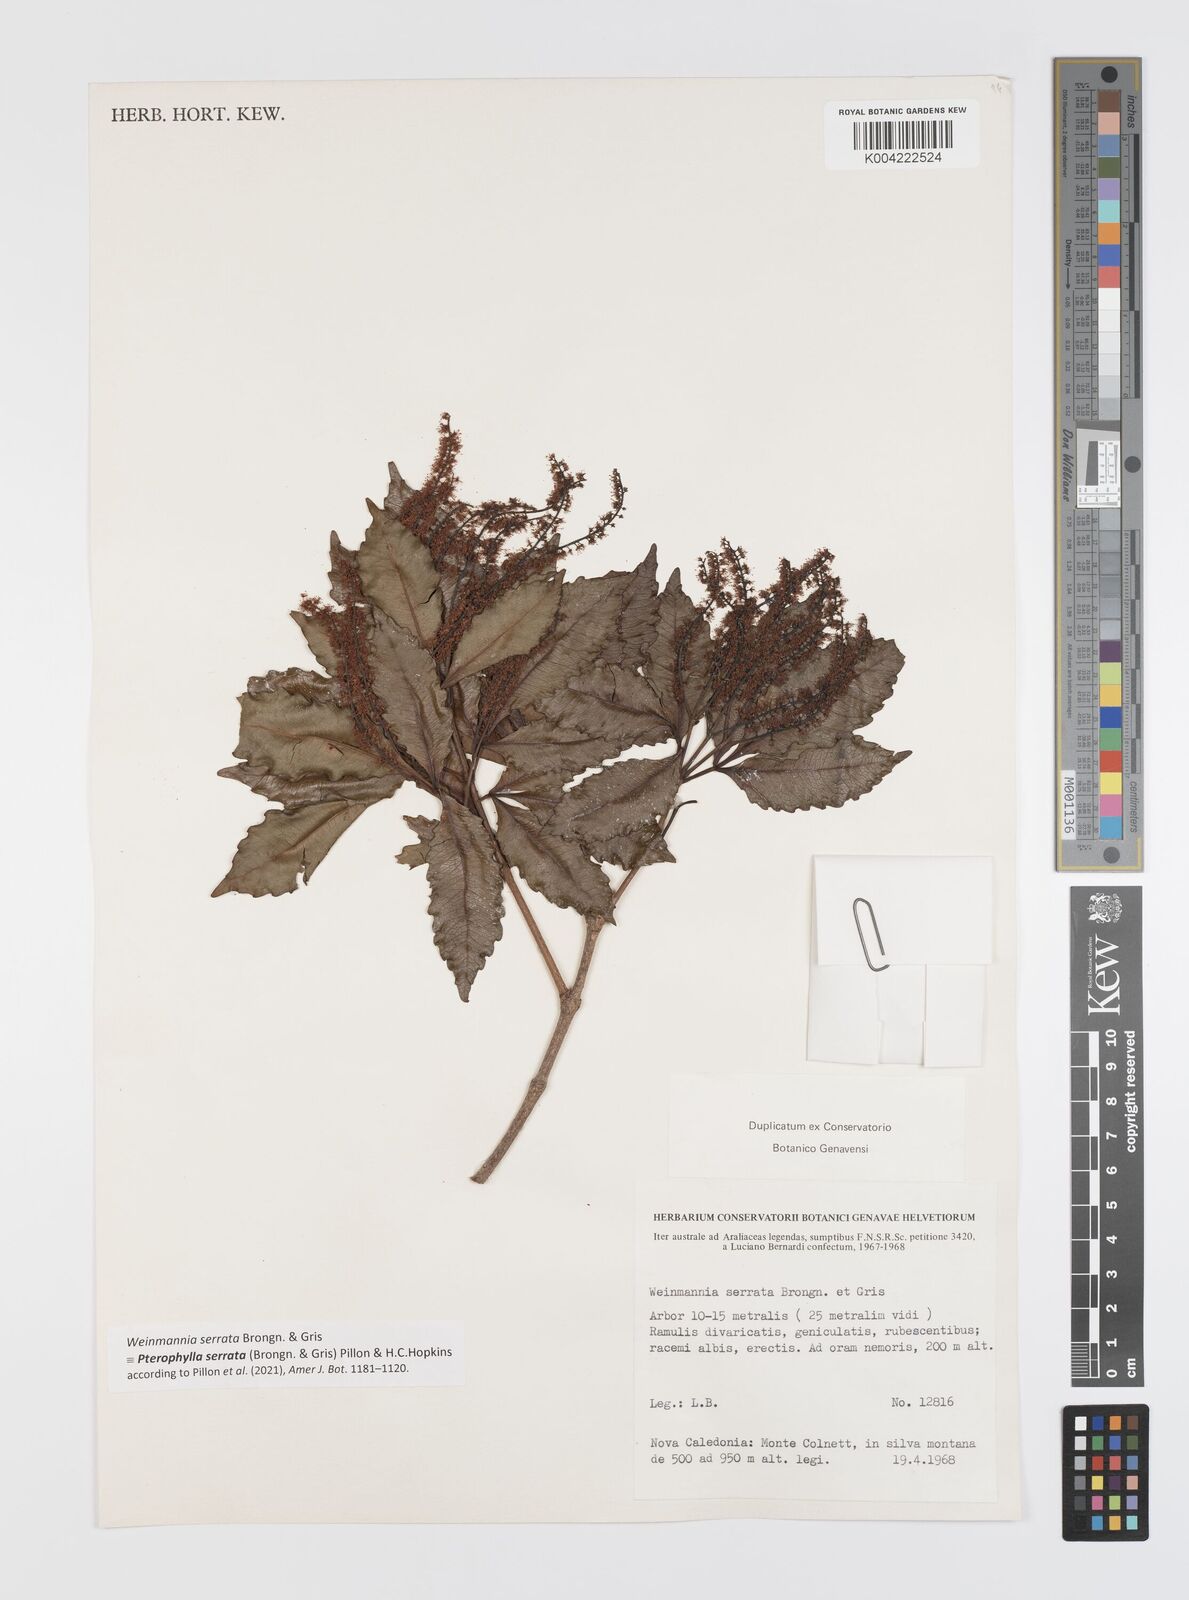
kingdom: Plantae
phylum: Tracheophyta
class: Magnoliopsida
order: Oxalidales
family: Cunoniaceae
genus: Pterophylla
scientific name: Pterophylla serrata
